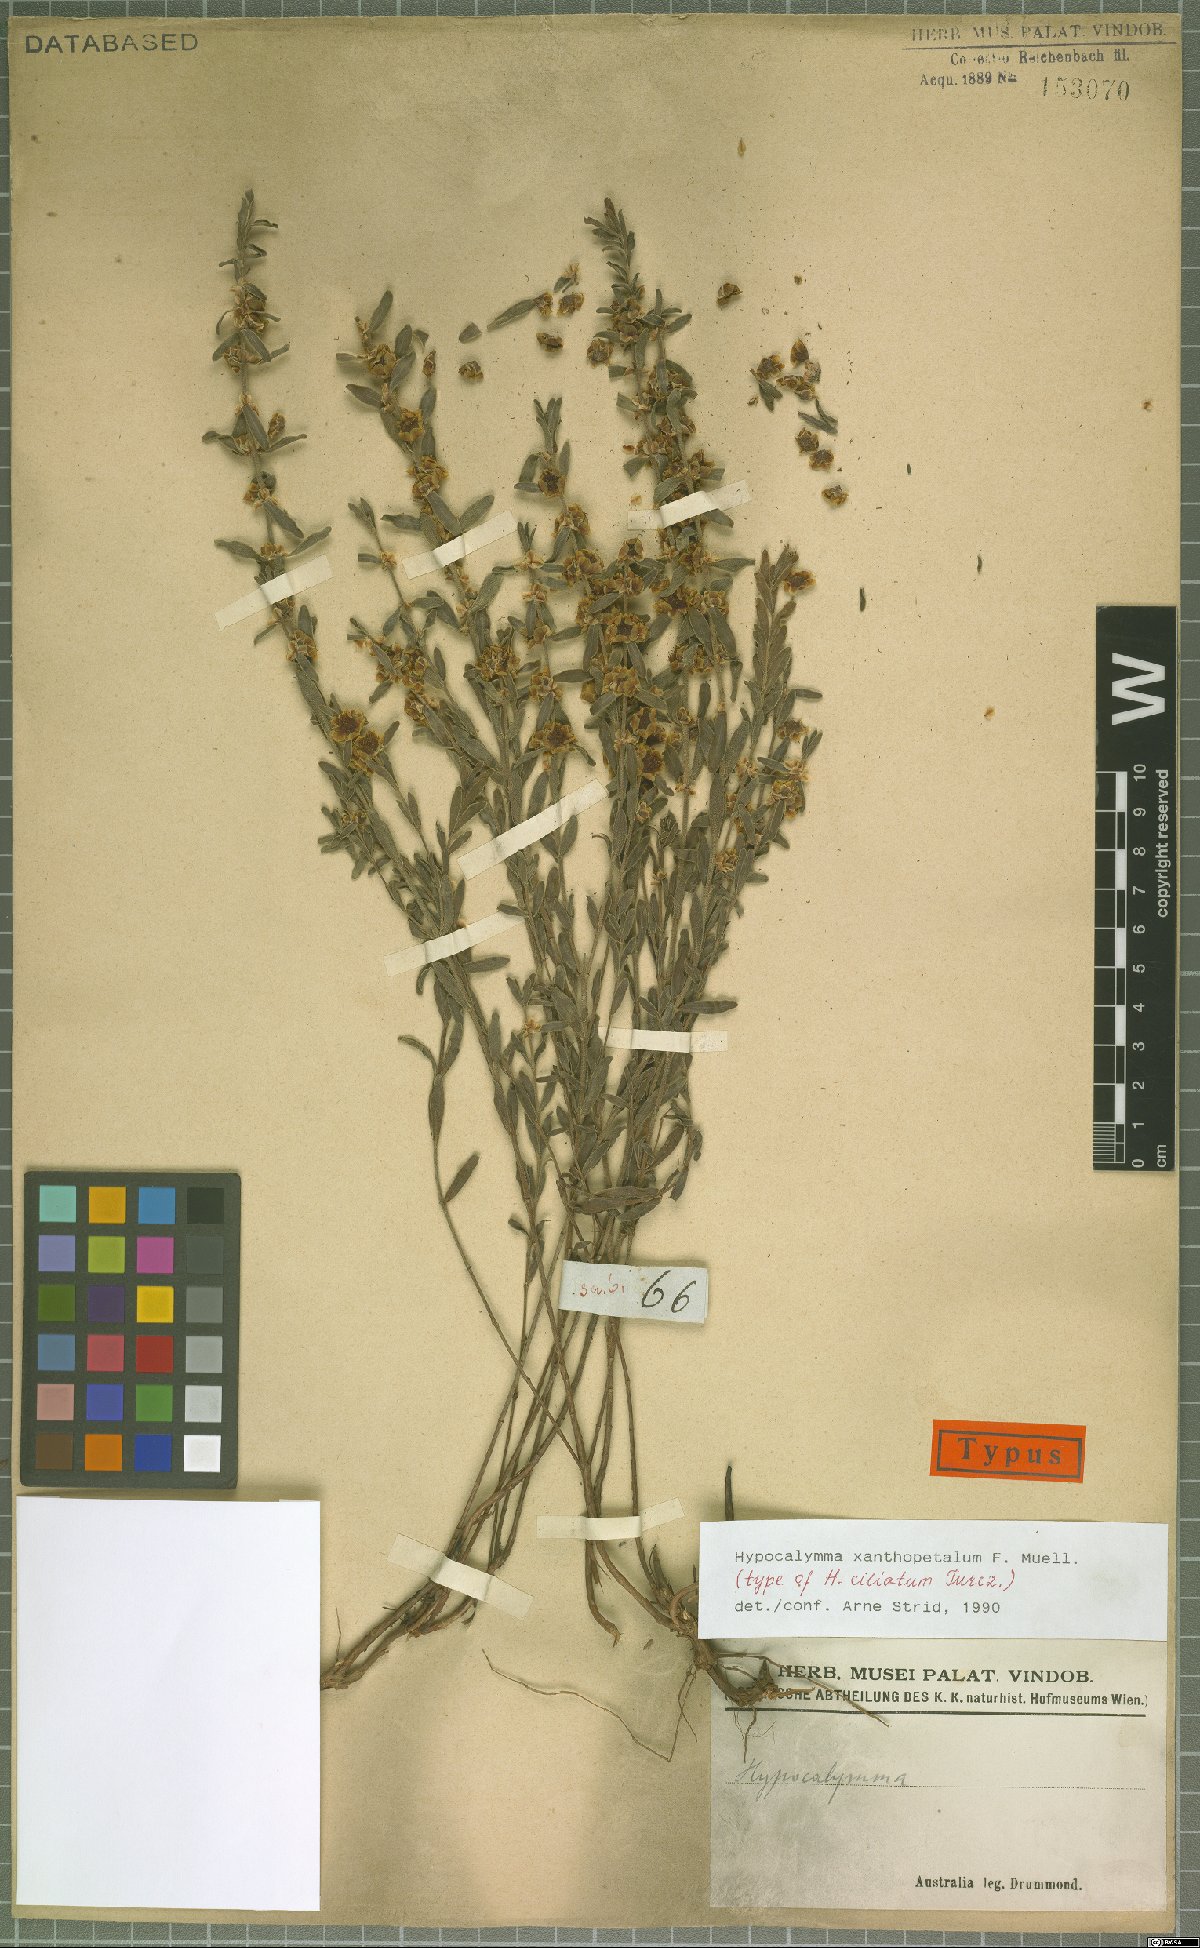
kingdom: Plantae
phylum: Tracheophyta
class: Magnoliopsida
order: Myrtales
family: Myrtaceae
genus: Hypocalymma
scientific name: Hypocalymma xanthopetalum
